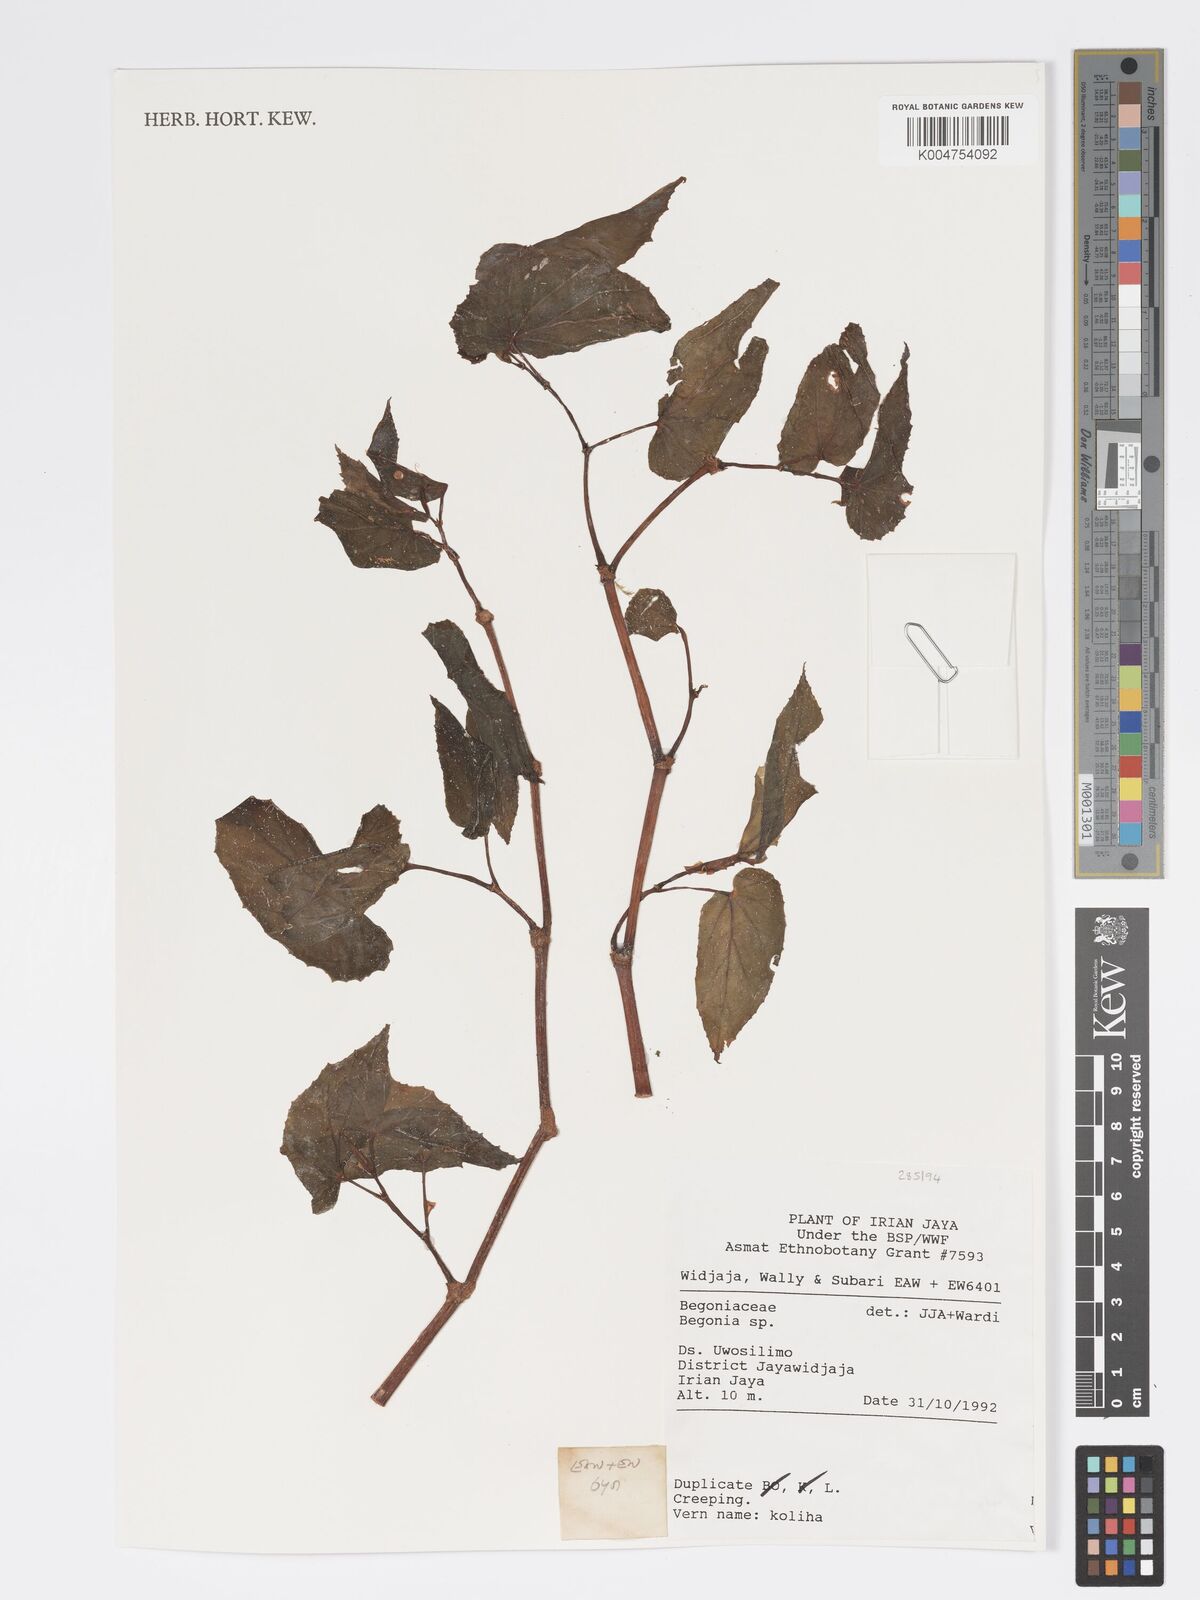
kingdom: Plantae
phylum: Tracheophyta
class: Magnoliopsida
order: Cucurbitales
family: Begoniaceae
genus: Begonia
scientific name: Begonia
